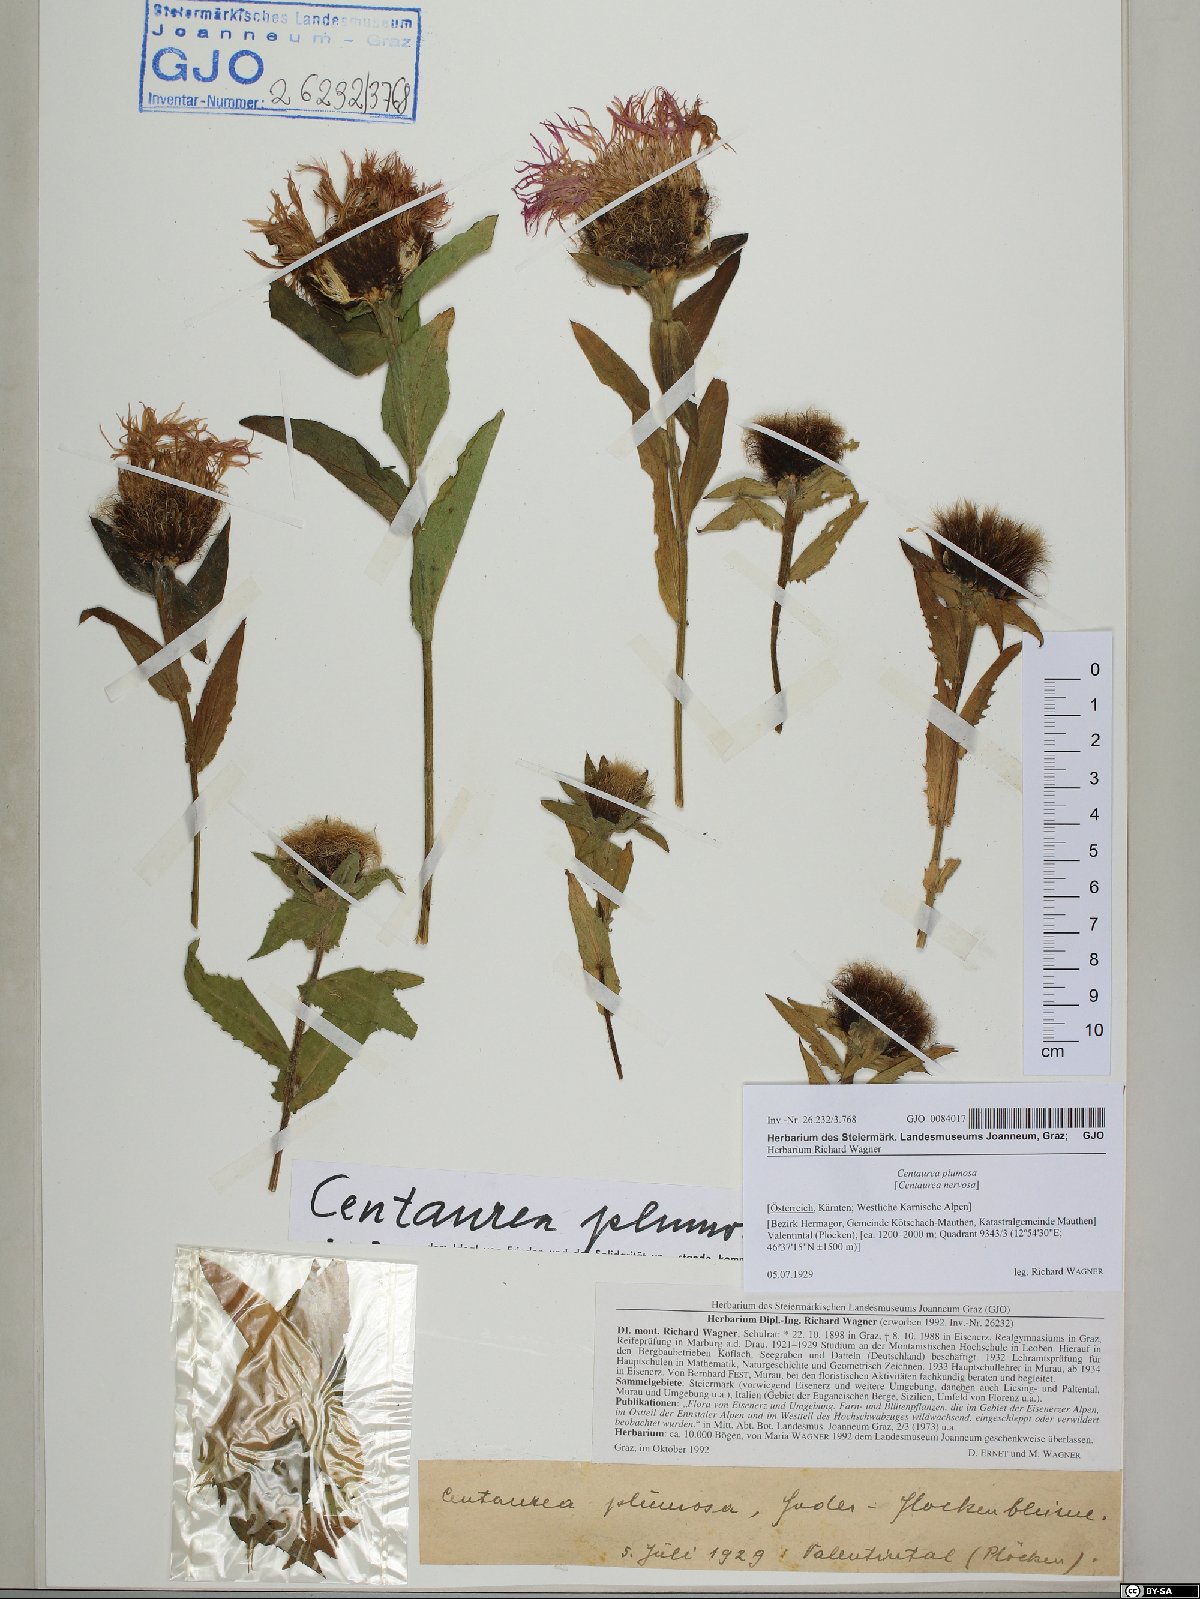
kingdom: Plantae
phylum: Tracheophyta
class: Magnoliopsida
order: Asterales
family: Asteraceae
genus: Centaurea
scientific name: Centaurea nervosa
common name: Singleflower knapweed
